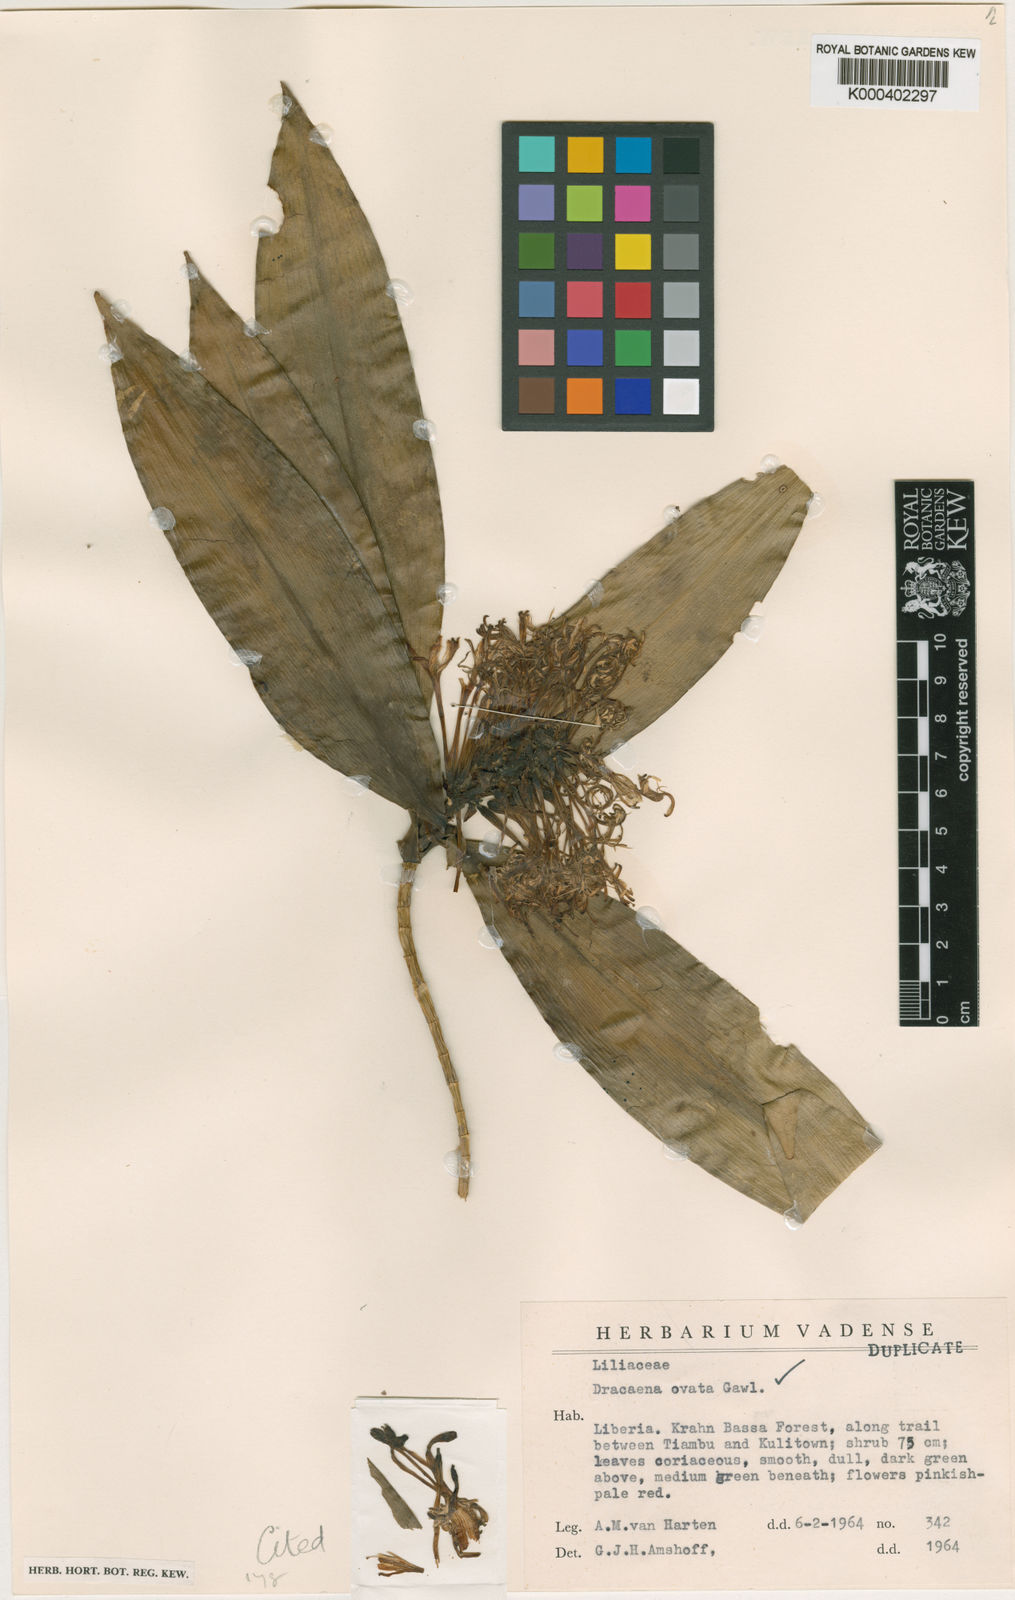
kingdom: Plantae
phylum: Tracheophyta
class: Liliopsida
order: Asparagales
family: Asparagaceae
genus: Dracaena
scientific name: Dracaena ovata
